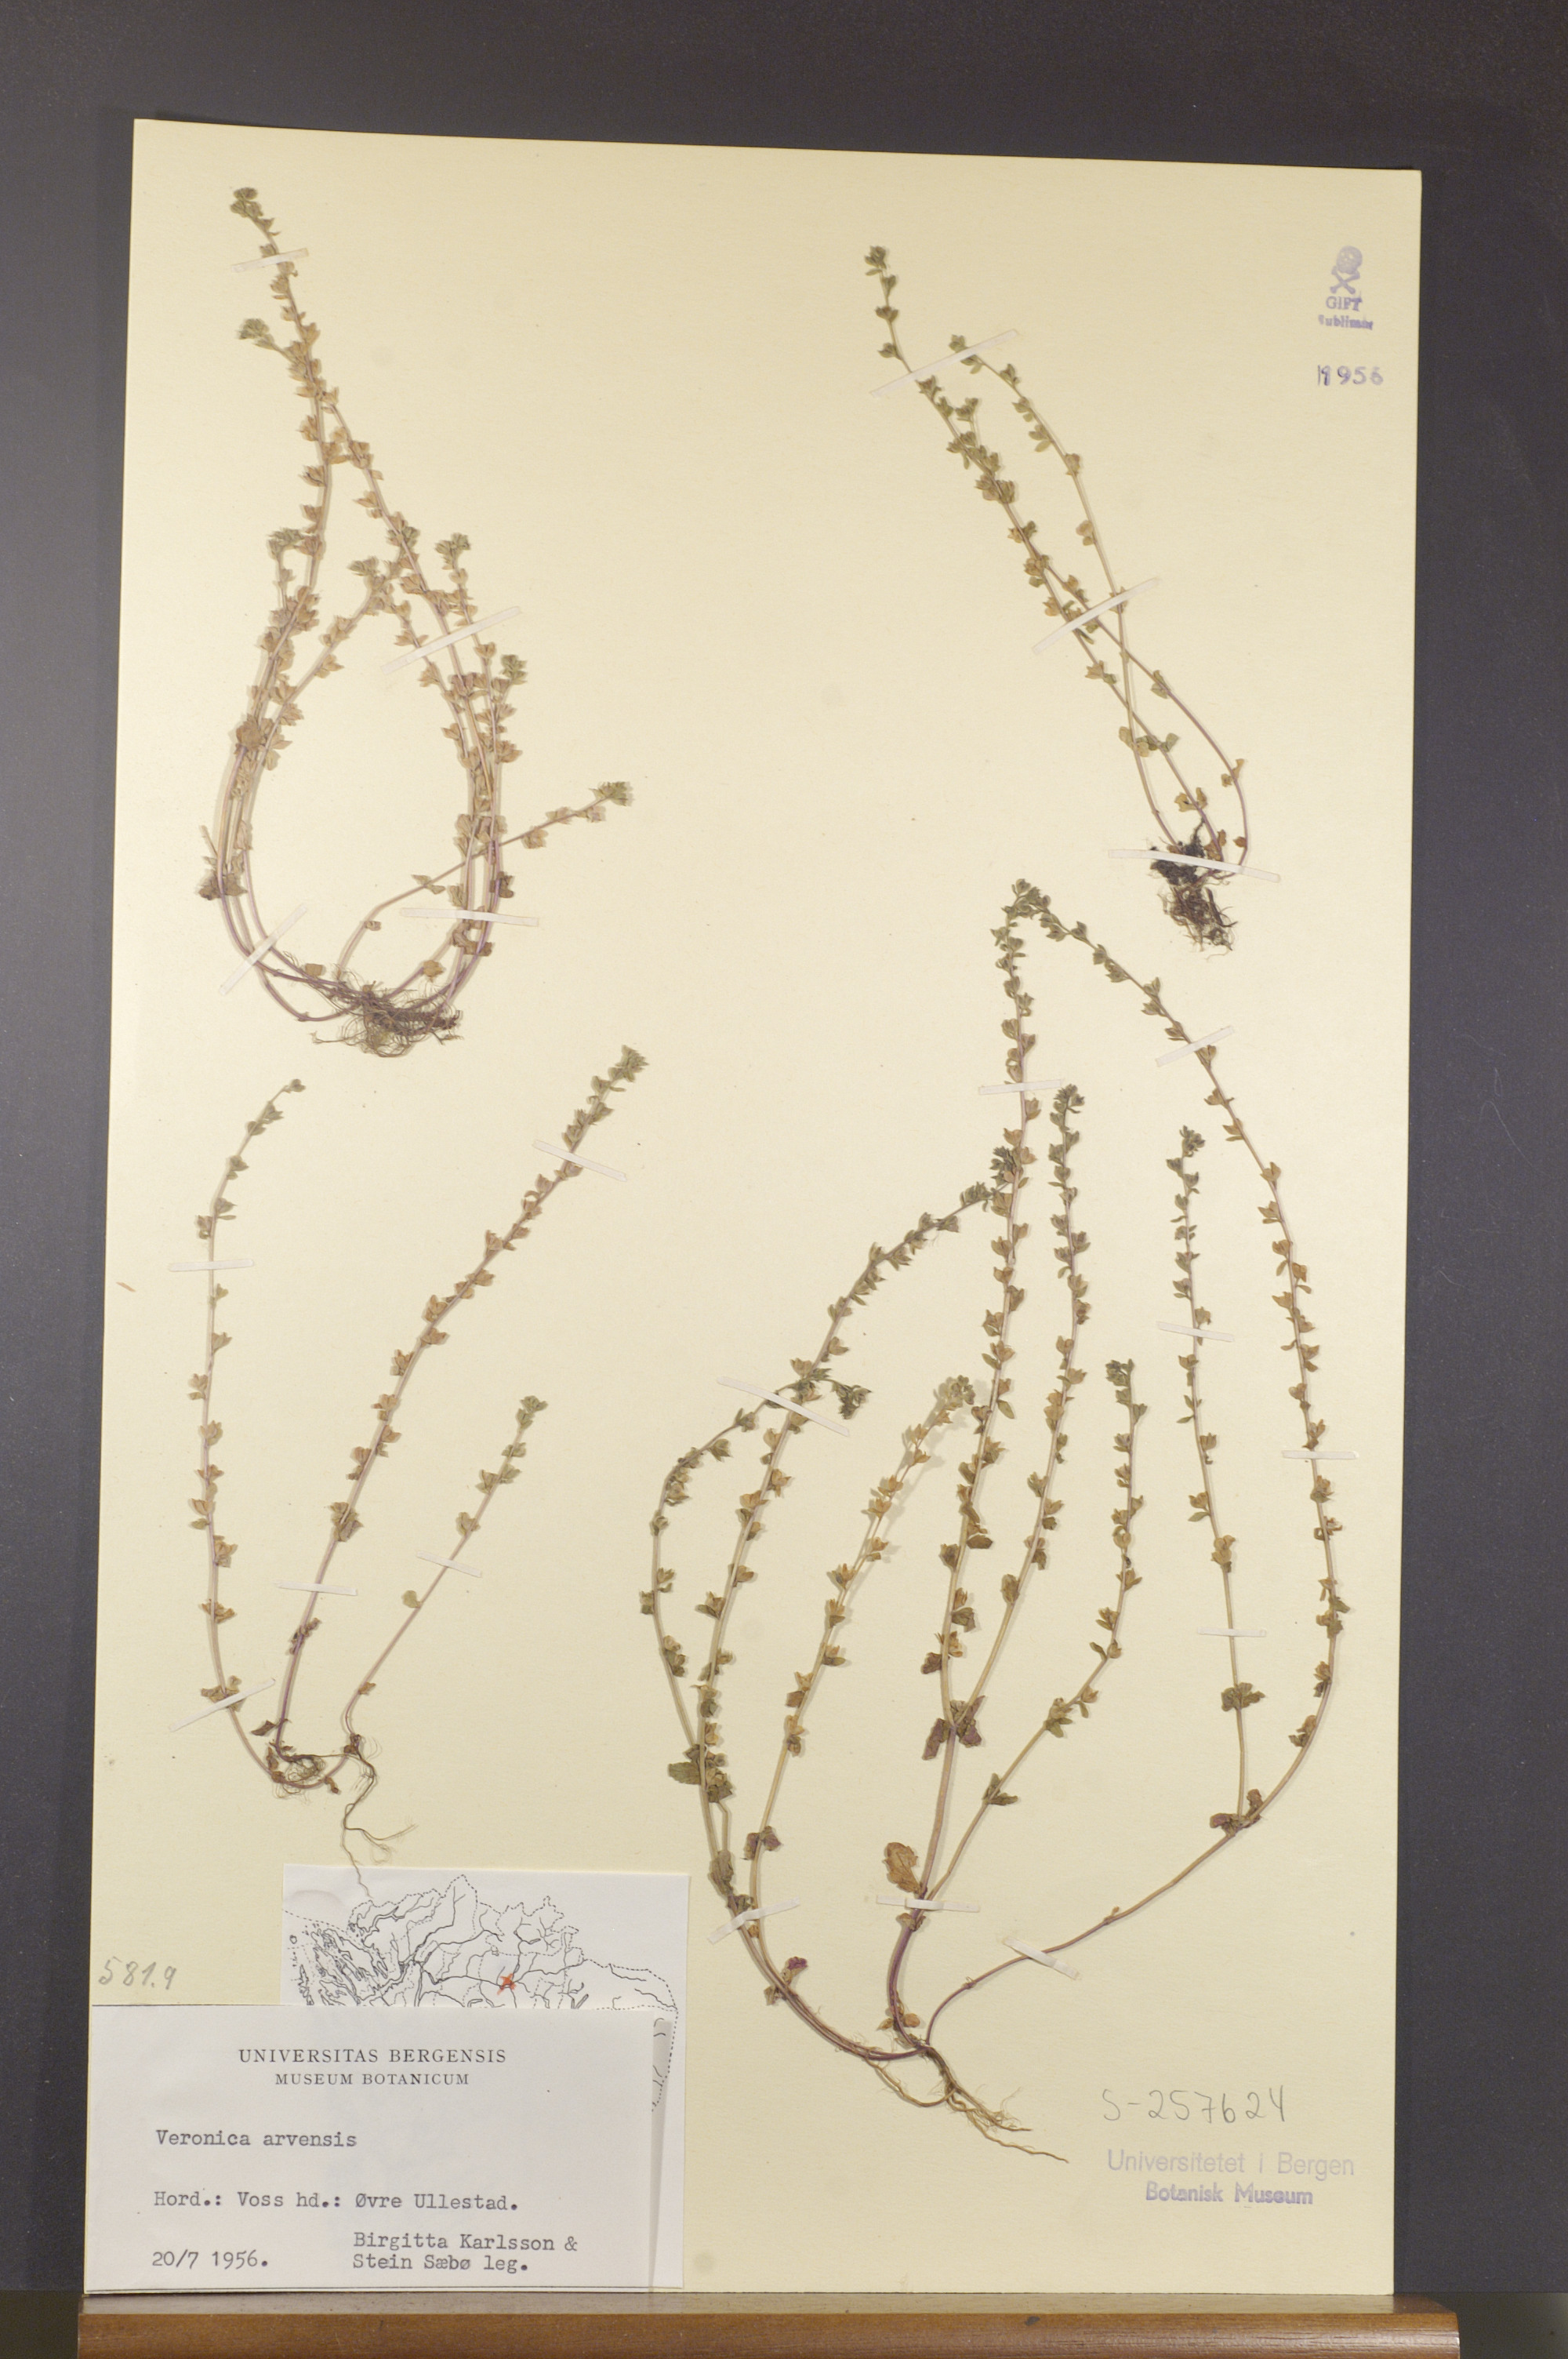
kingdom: Plantae
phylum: Tracheophyta
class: Magnoliopsida
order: Lamiales
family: Plantaginaceae
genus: Veronica
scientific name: Veronica arvensis
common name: Corn speedwell
